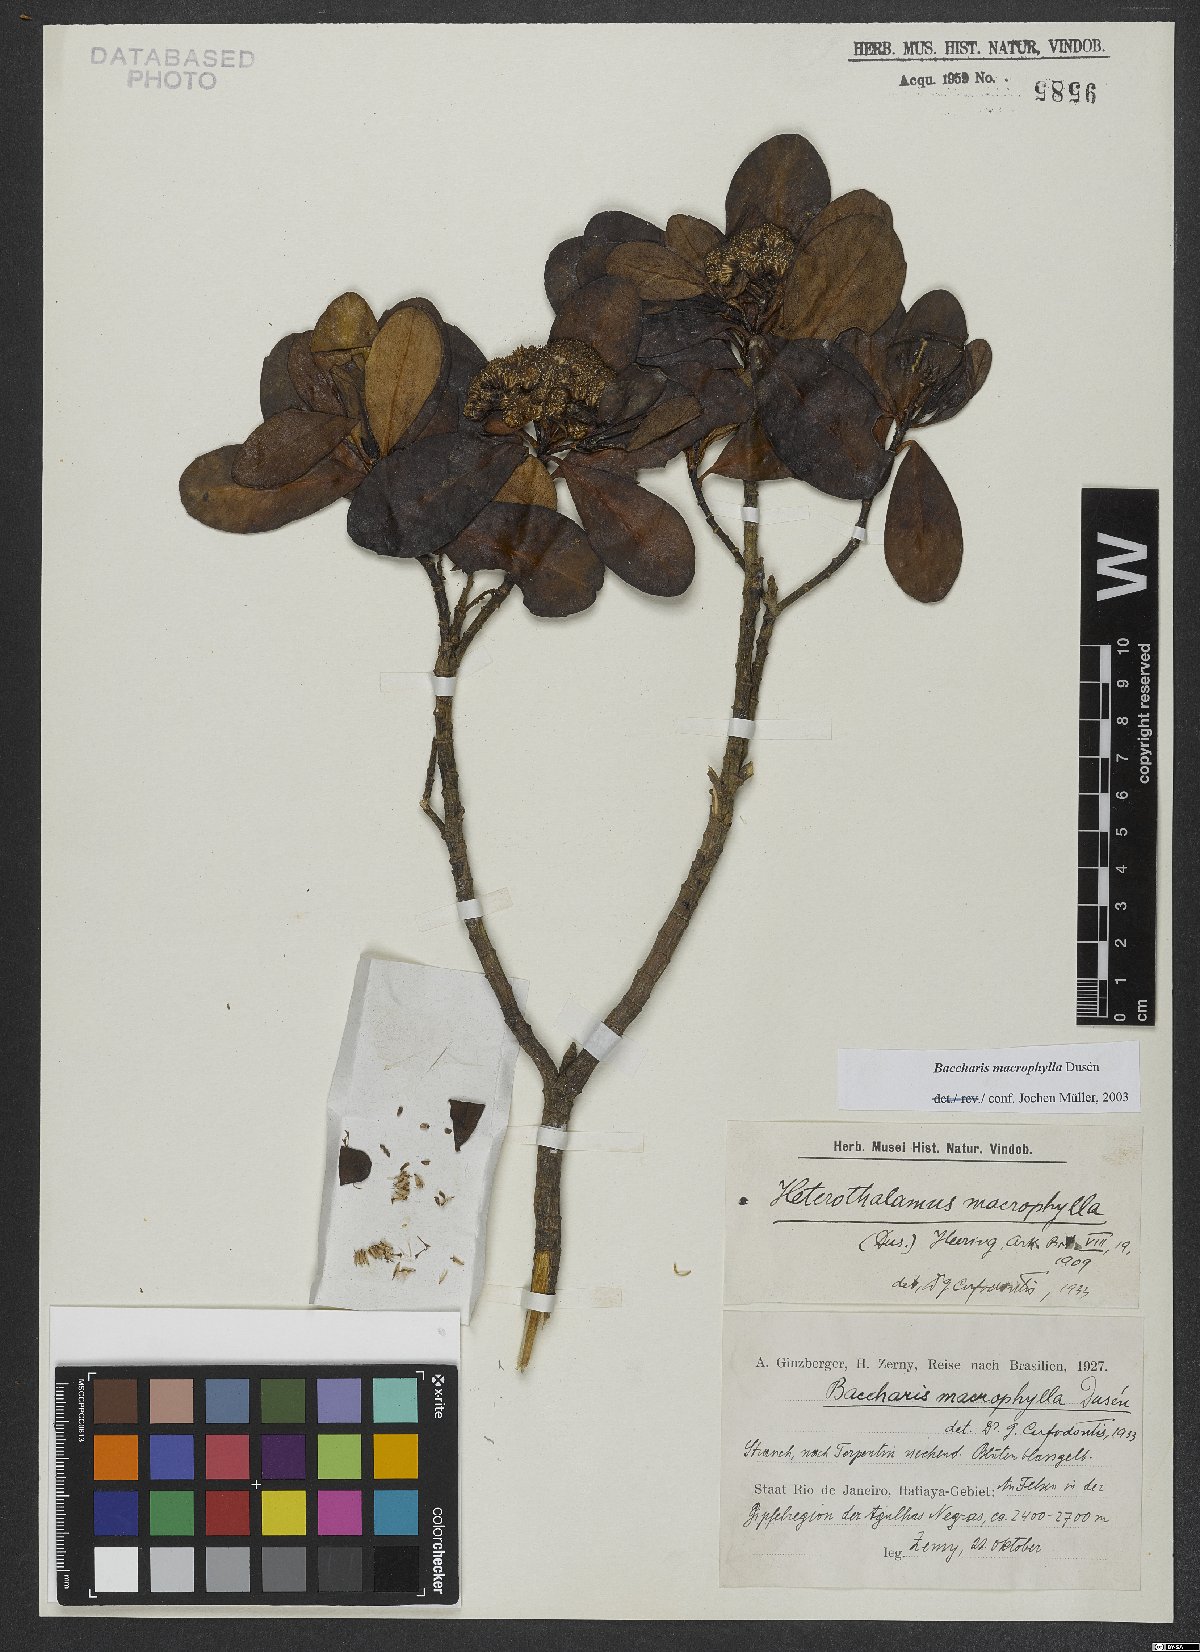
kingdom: Plantae
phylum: Tracheophyta
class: Magnoliopsida
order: Asterales
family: Asteraceae
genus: Pseudobaccharis
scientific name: Pseudobaccharis macrophylla
